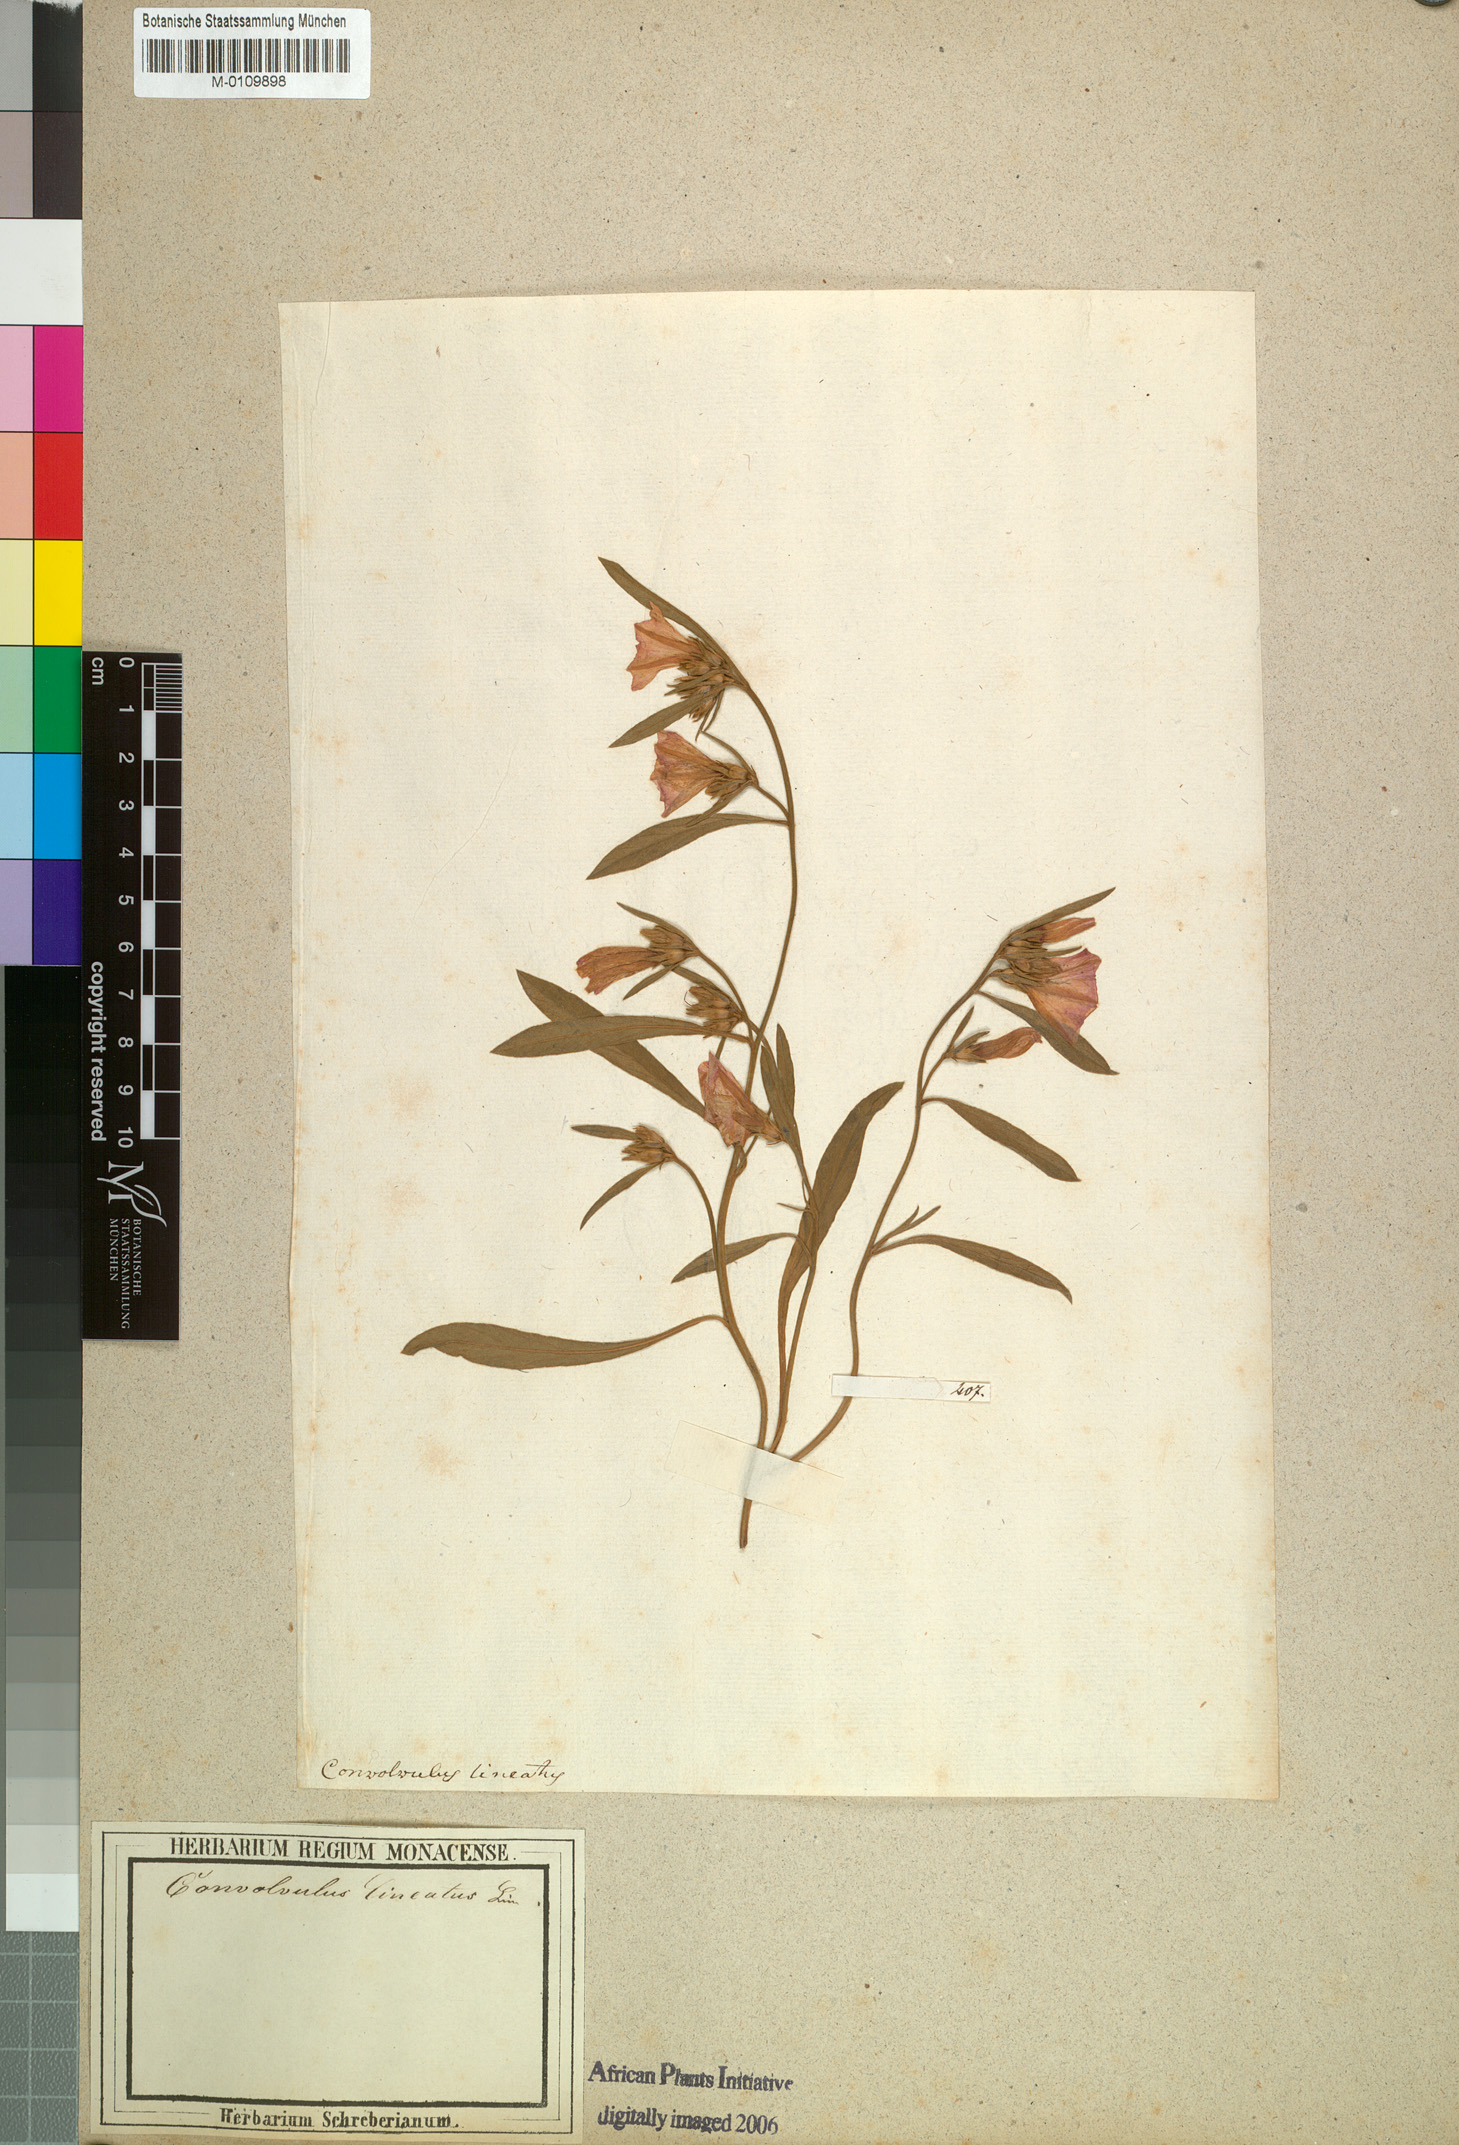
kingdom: Plantae
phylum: Tracheophyta
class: Magnoliopsida
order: Solanales
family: Convolvulaceae
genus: Convolvulus
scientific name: Convolvulus lineatus
